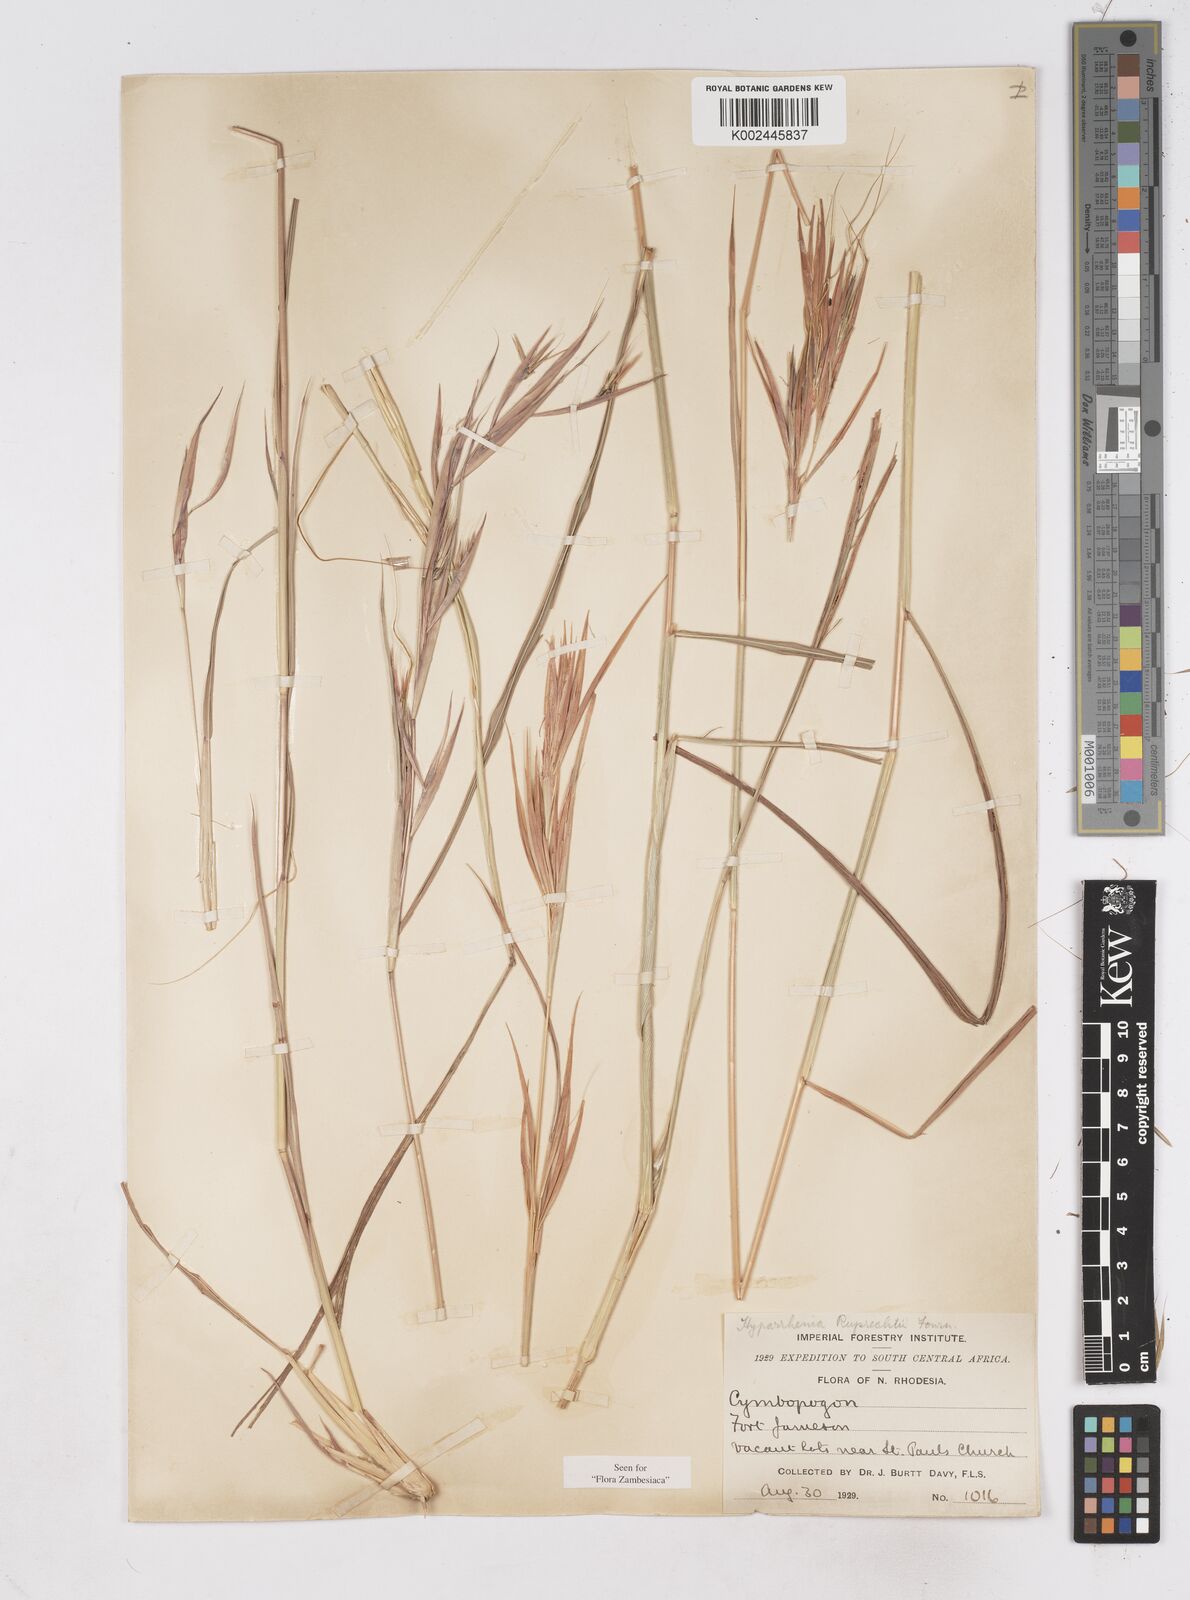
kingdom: Plantae
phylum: Tracheophyta
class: Liliopsida
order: Poales
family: Poaceae
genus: Hyperthelia
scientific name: Hyperthelia dissoluta
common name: Yellow thatching grass
